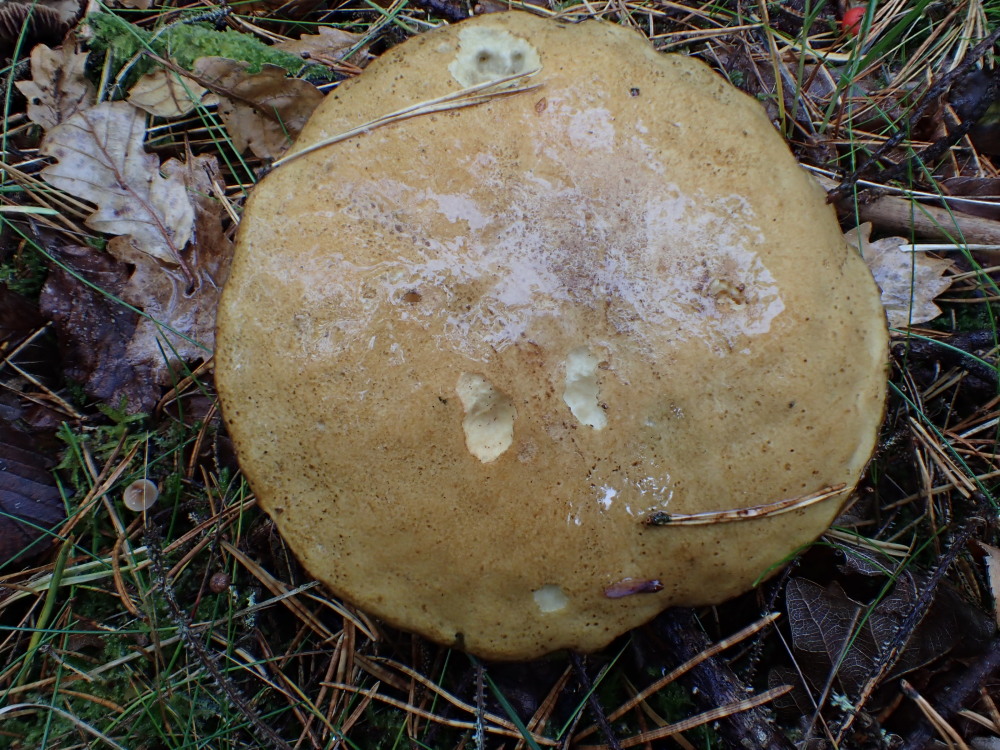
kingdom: Fungi
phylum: Basidiomycota
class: Agaricomycetes
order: Boletales
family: Suillaceae
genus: Suillus
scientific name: Suillus variegatus
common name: broget slimrørhat
